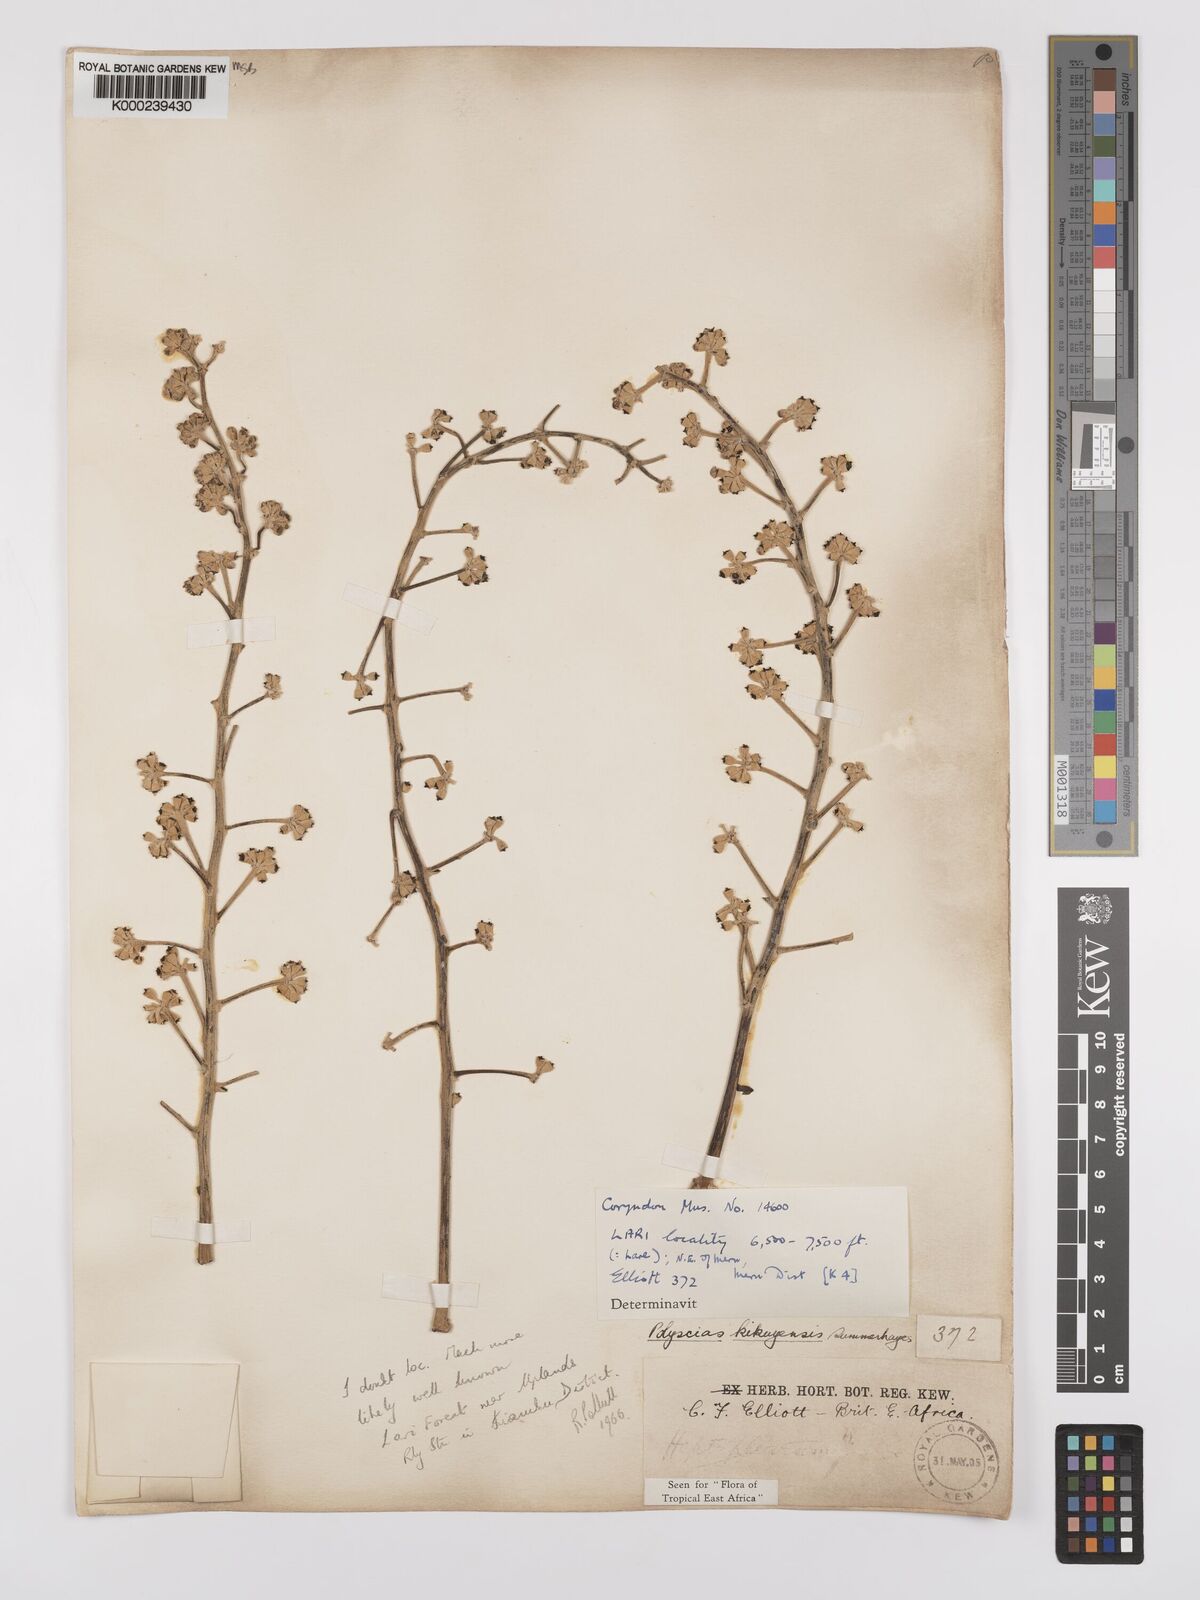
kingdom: Plantae
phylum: Tracheophyta
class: Magnoliopsida
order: Apiales
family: Araliaceae
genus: Polyscias
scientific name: Polyscias kikuyuensis
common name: Parasol tree
